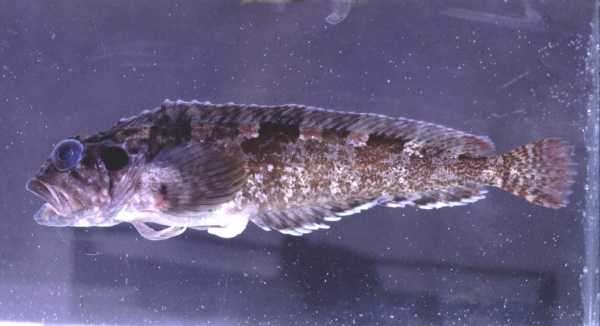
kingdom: Animalia
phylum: Chordata
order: Perciformes
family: Clinidae
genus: Clinus
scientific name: Clinus cottoides
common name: Bluntnose klipfish
